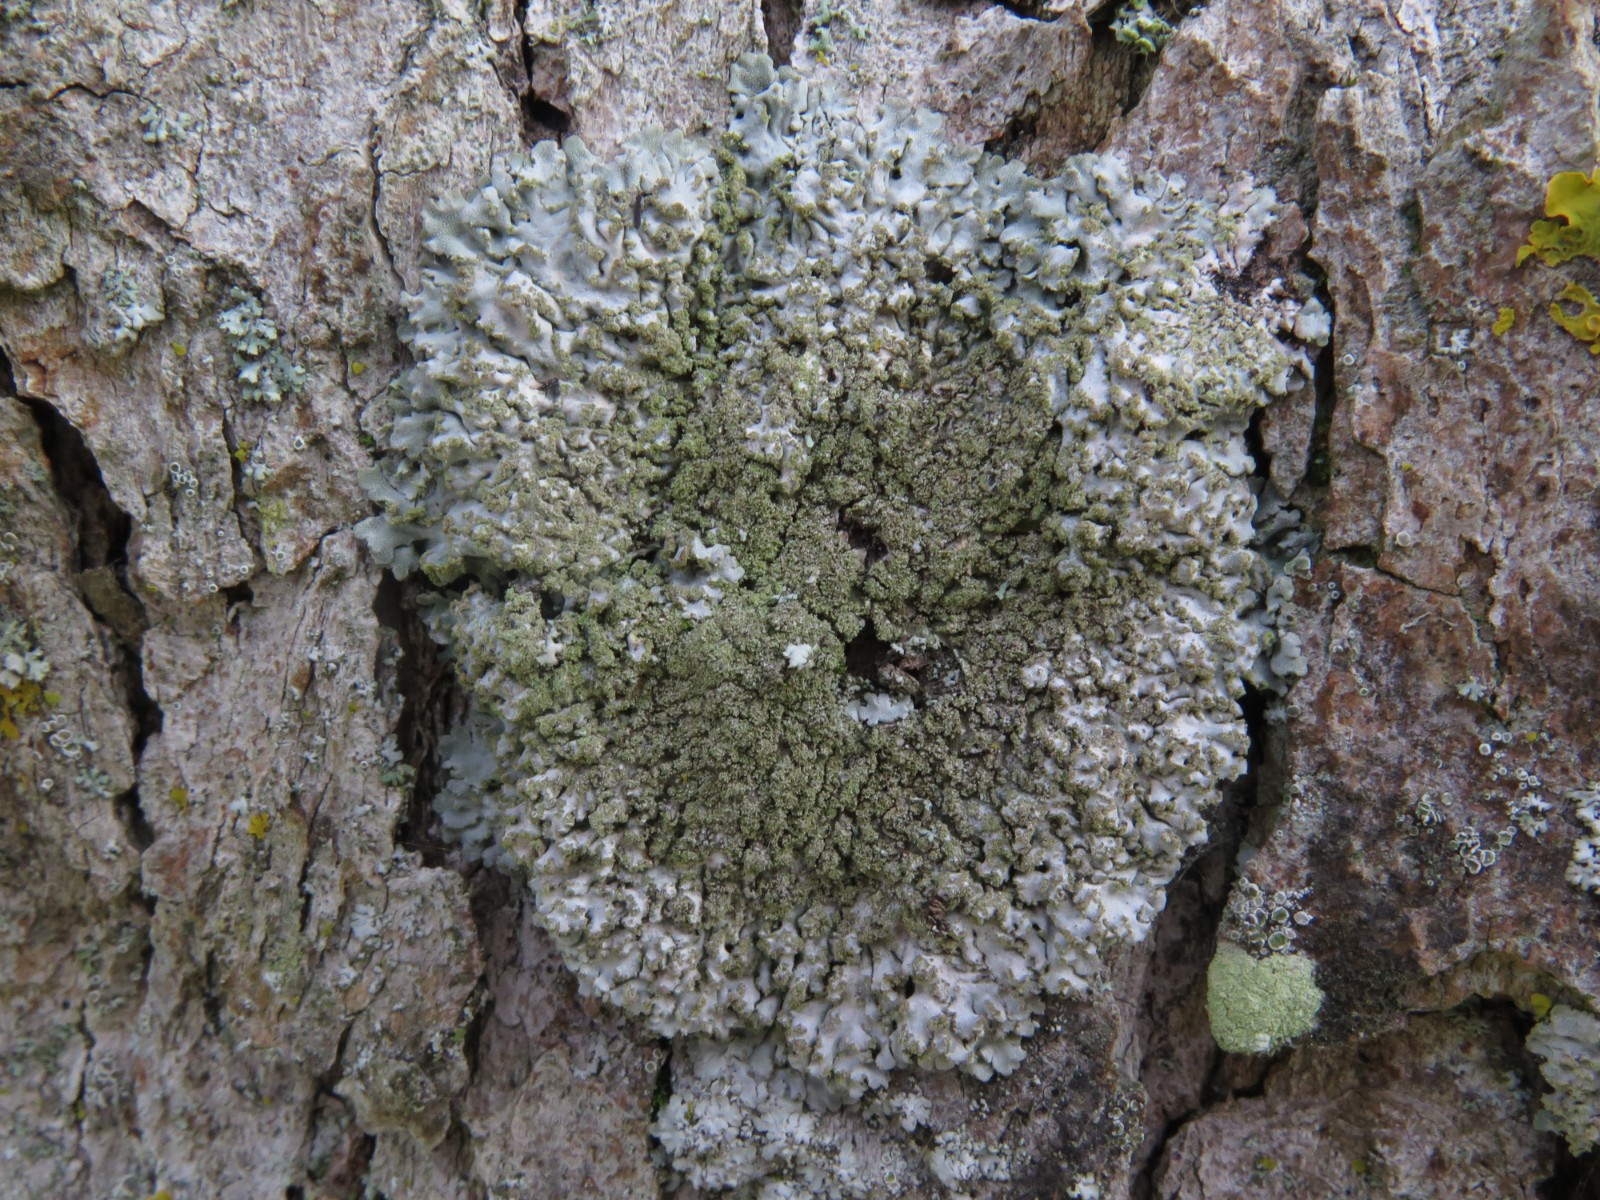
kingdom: Fungi
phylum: Ascomycota
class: Lecanoromycetes
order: Caliciales
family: Physciaceae
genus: Poeltonia
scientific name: Poeltonia grisea
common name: hvidgrå dugrosetlav
